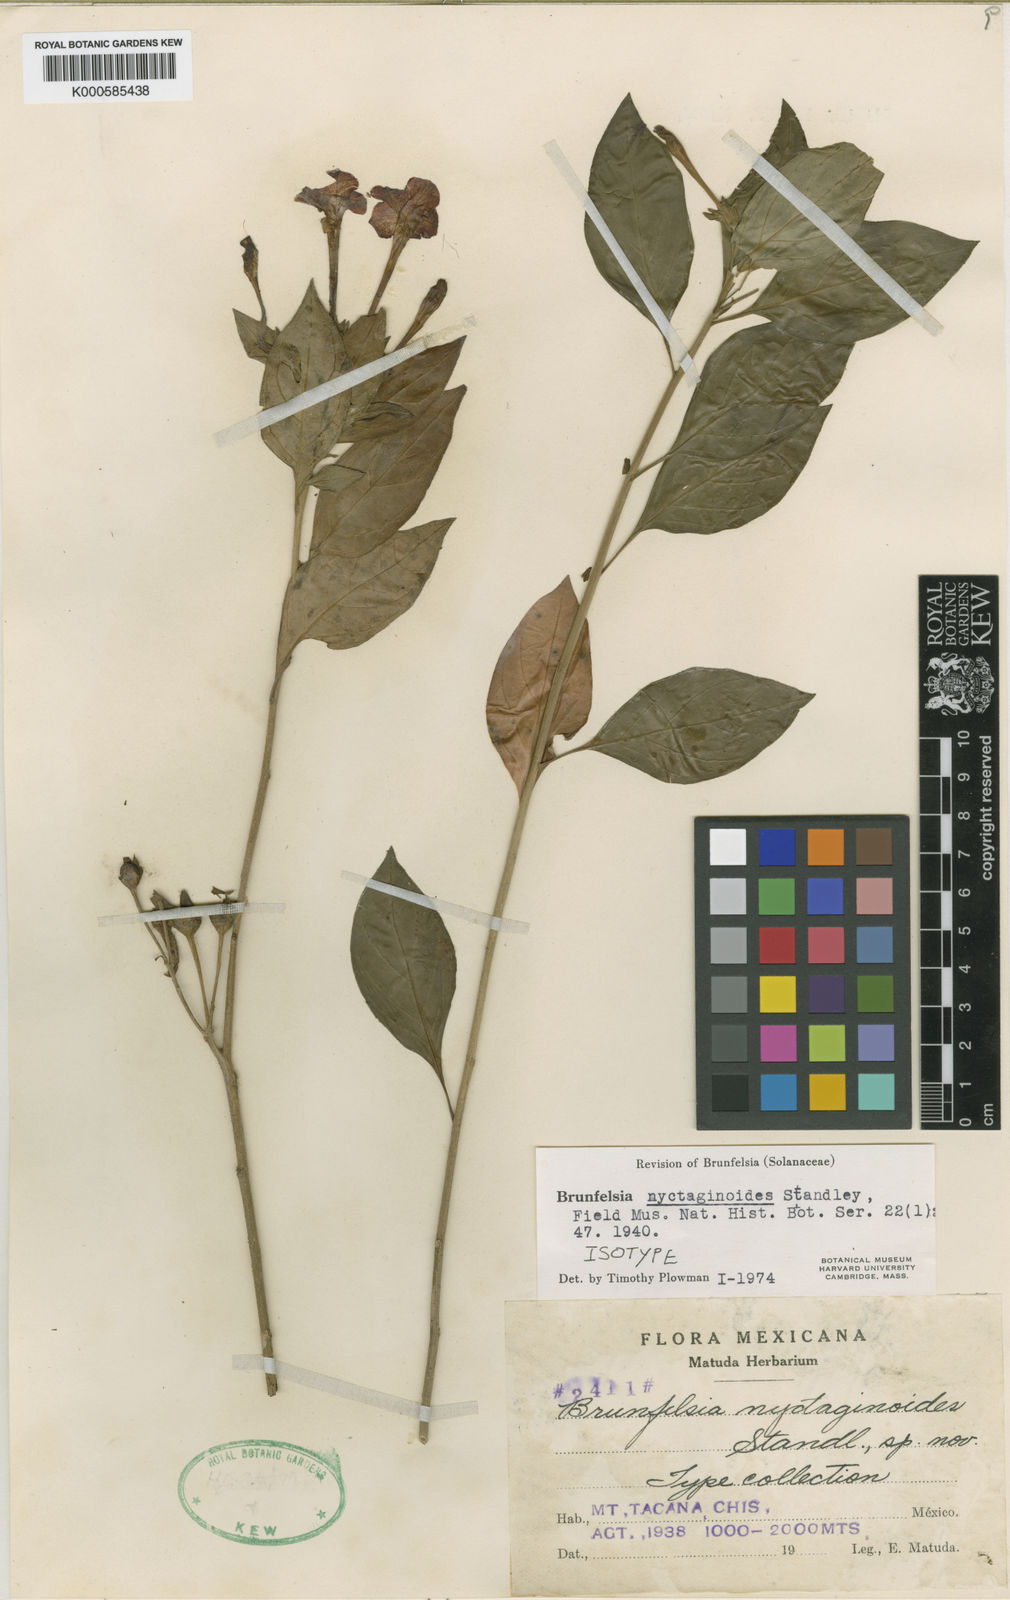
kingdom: Plantae
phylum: Tracheophyta
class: Magnoliopsida
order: Solanales
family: Solanaceae
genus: Plowmania
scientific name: Plowmania nyctaginoides
